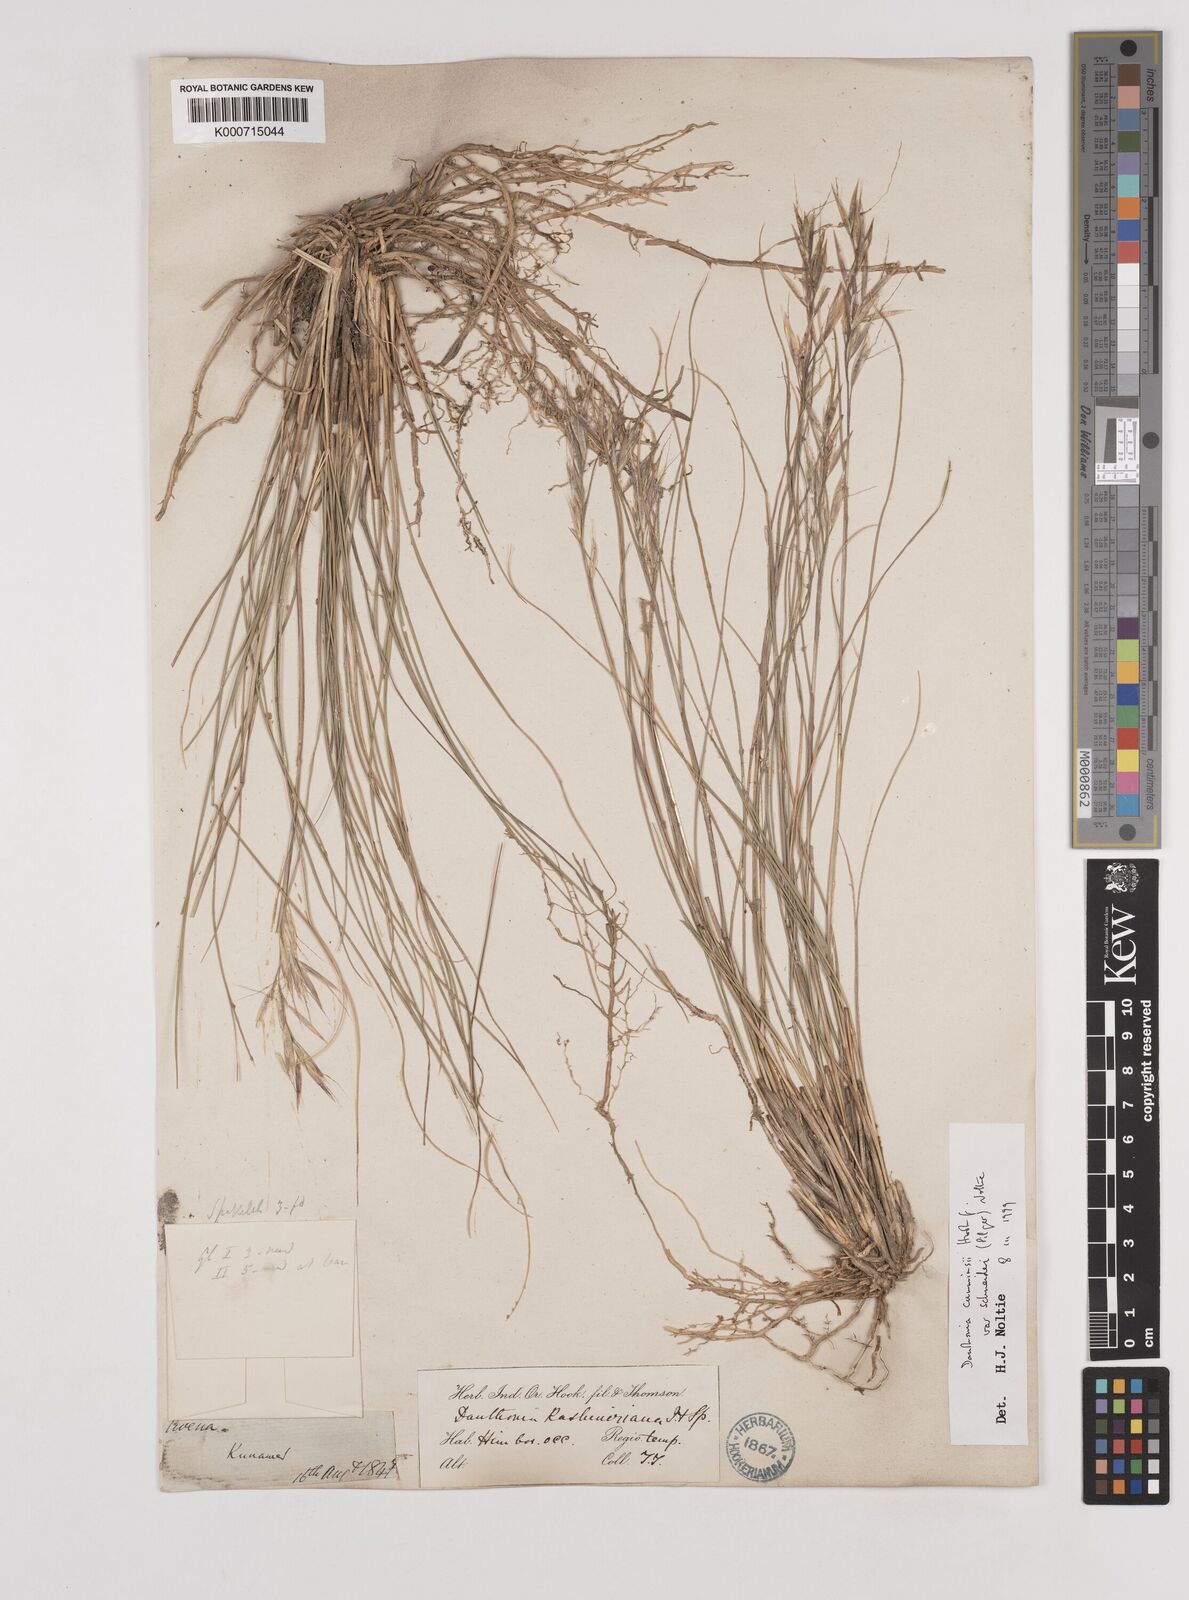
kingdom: Plantae
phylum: Tracheophyta
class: Liliopsida
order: Poales
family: Poaceae
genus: Rytidosperma
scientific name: Rytidosperma
